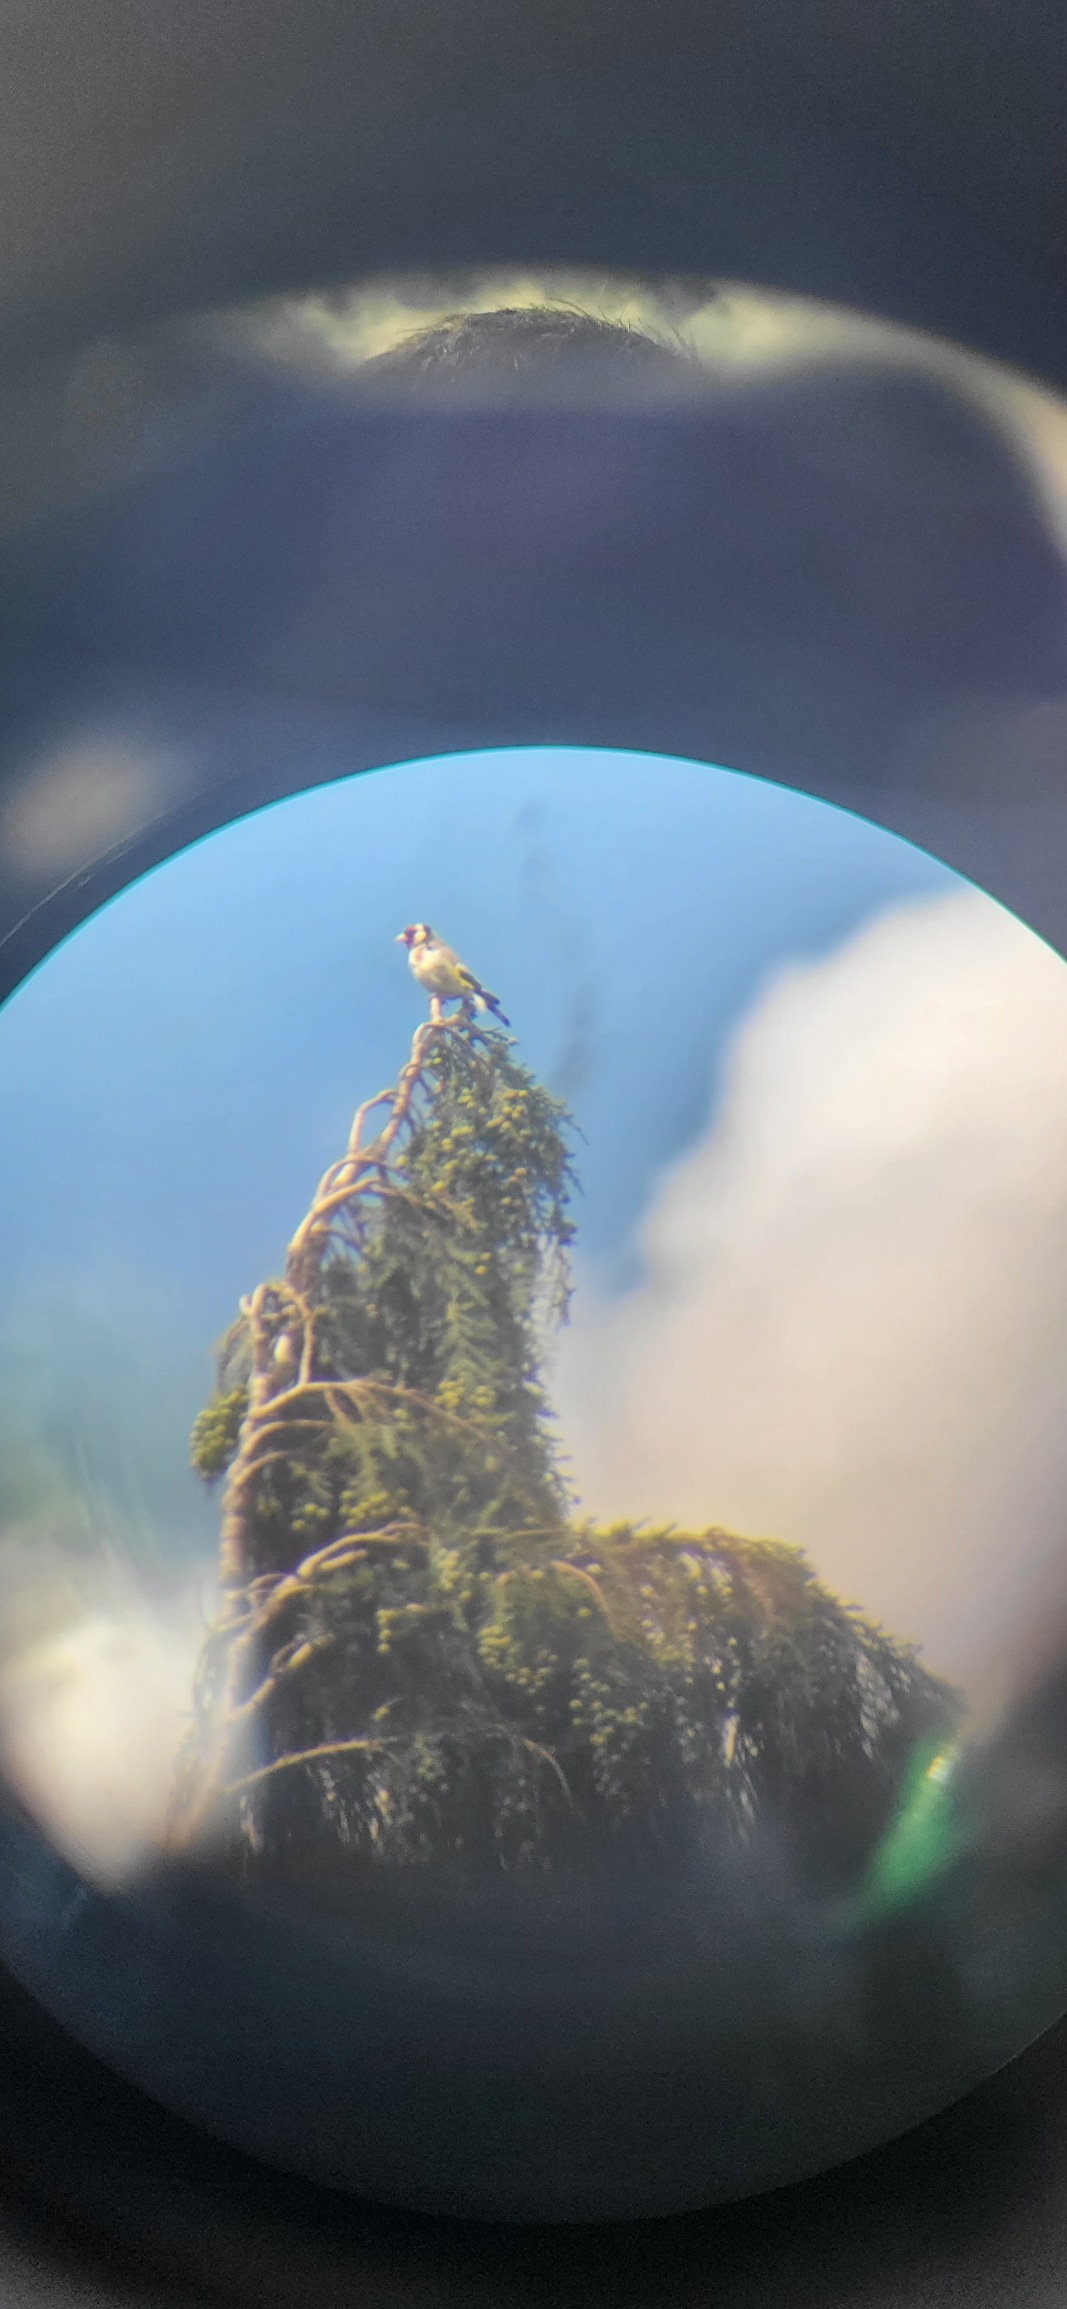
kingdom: Animalia
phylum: Chordata
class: Aves
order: Passeriformes
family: Fringillidae
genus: Carduelis
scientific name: Carduelis carduelis
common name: Stillits
